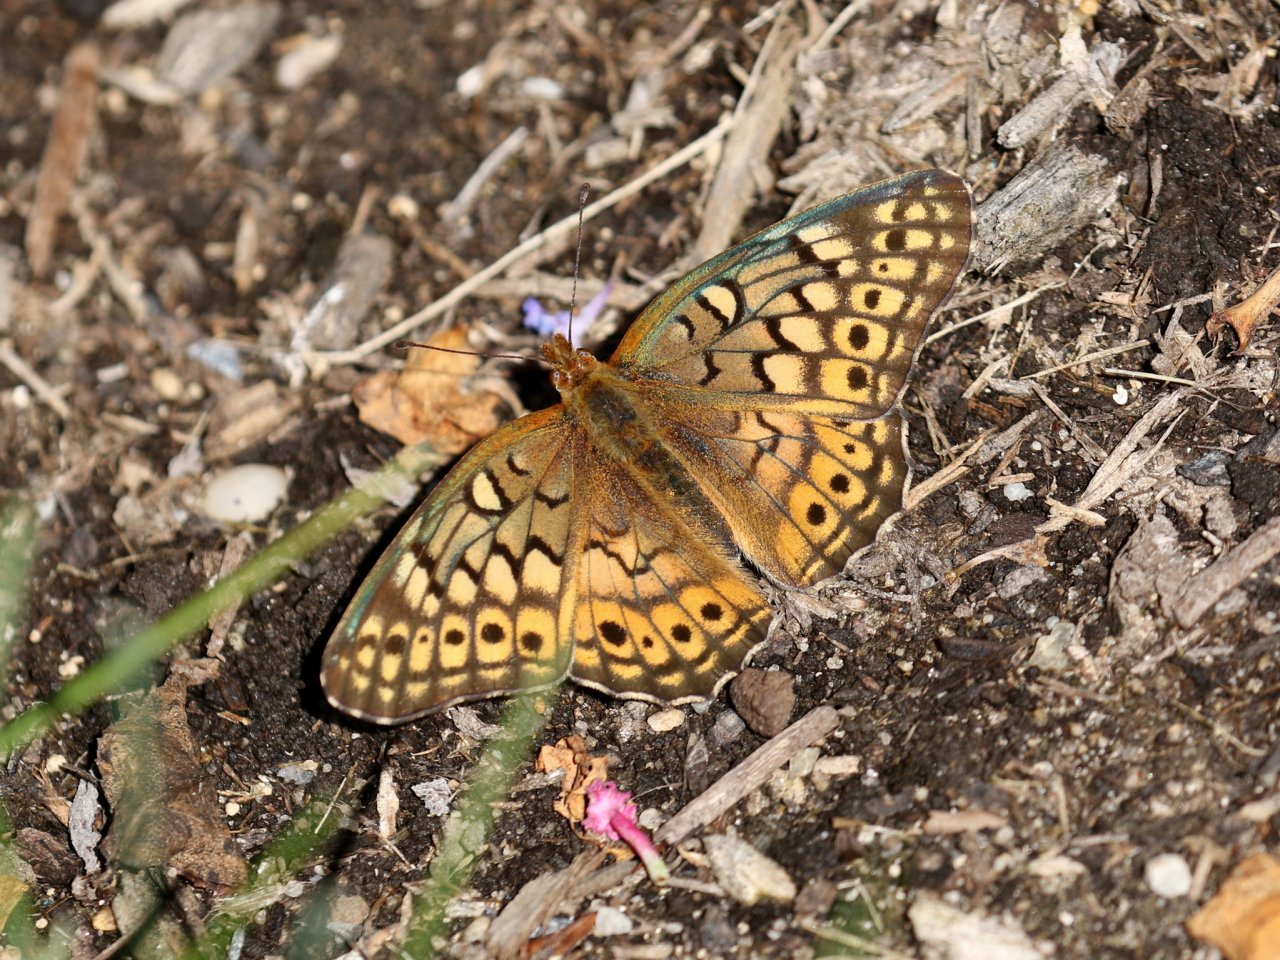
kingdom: Animalia
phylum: Arthropoda
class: Insecta
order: Lepidoptera
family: Nymphalidae
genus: Euptoieta
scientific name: Euptoieta claudia
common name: Variegated Fritillary
